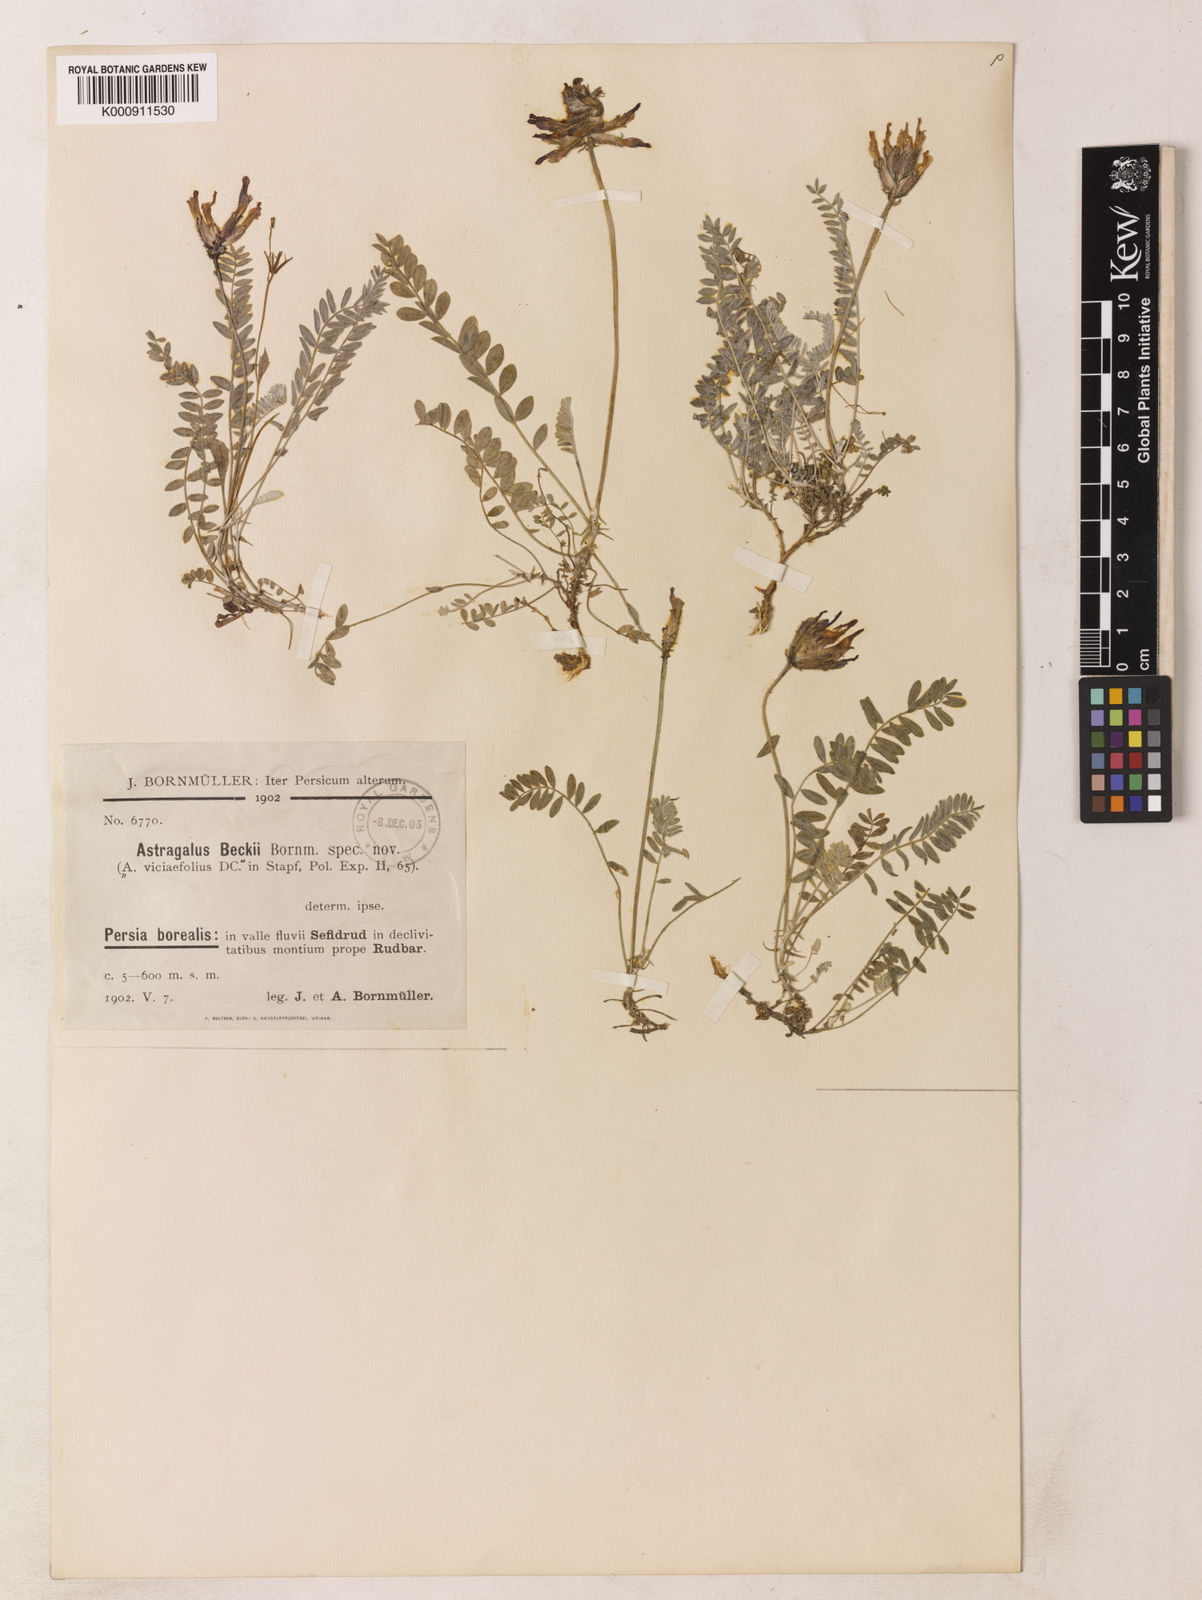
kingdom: Plantae
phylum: Tracheophyta
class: Magnoliopsida
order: Fabales
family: Fabaceae
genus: Astragalus
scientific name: Astragalus beckii
